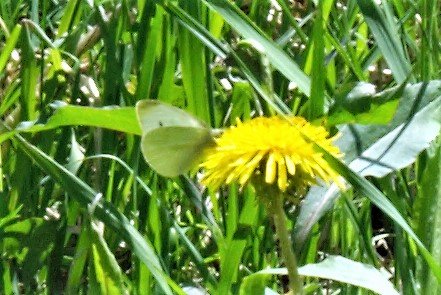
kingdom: Animalia
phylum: Arthropoda
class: Insecta
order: Lepidoptera
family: Pieridae
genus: Pieris
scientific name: Pieris rapae
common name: Cabbage White
